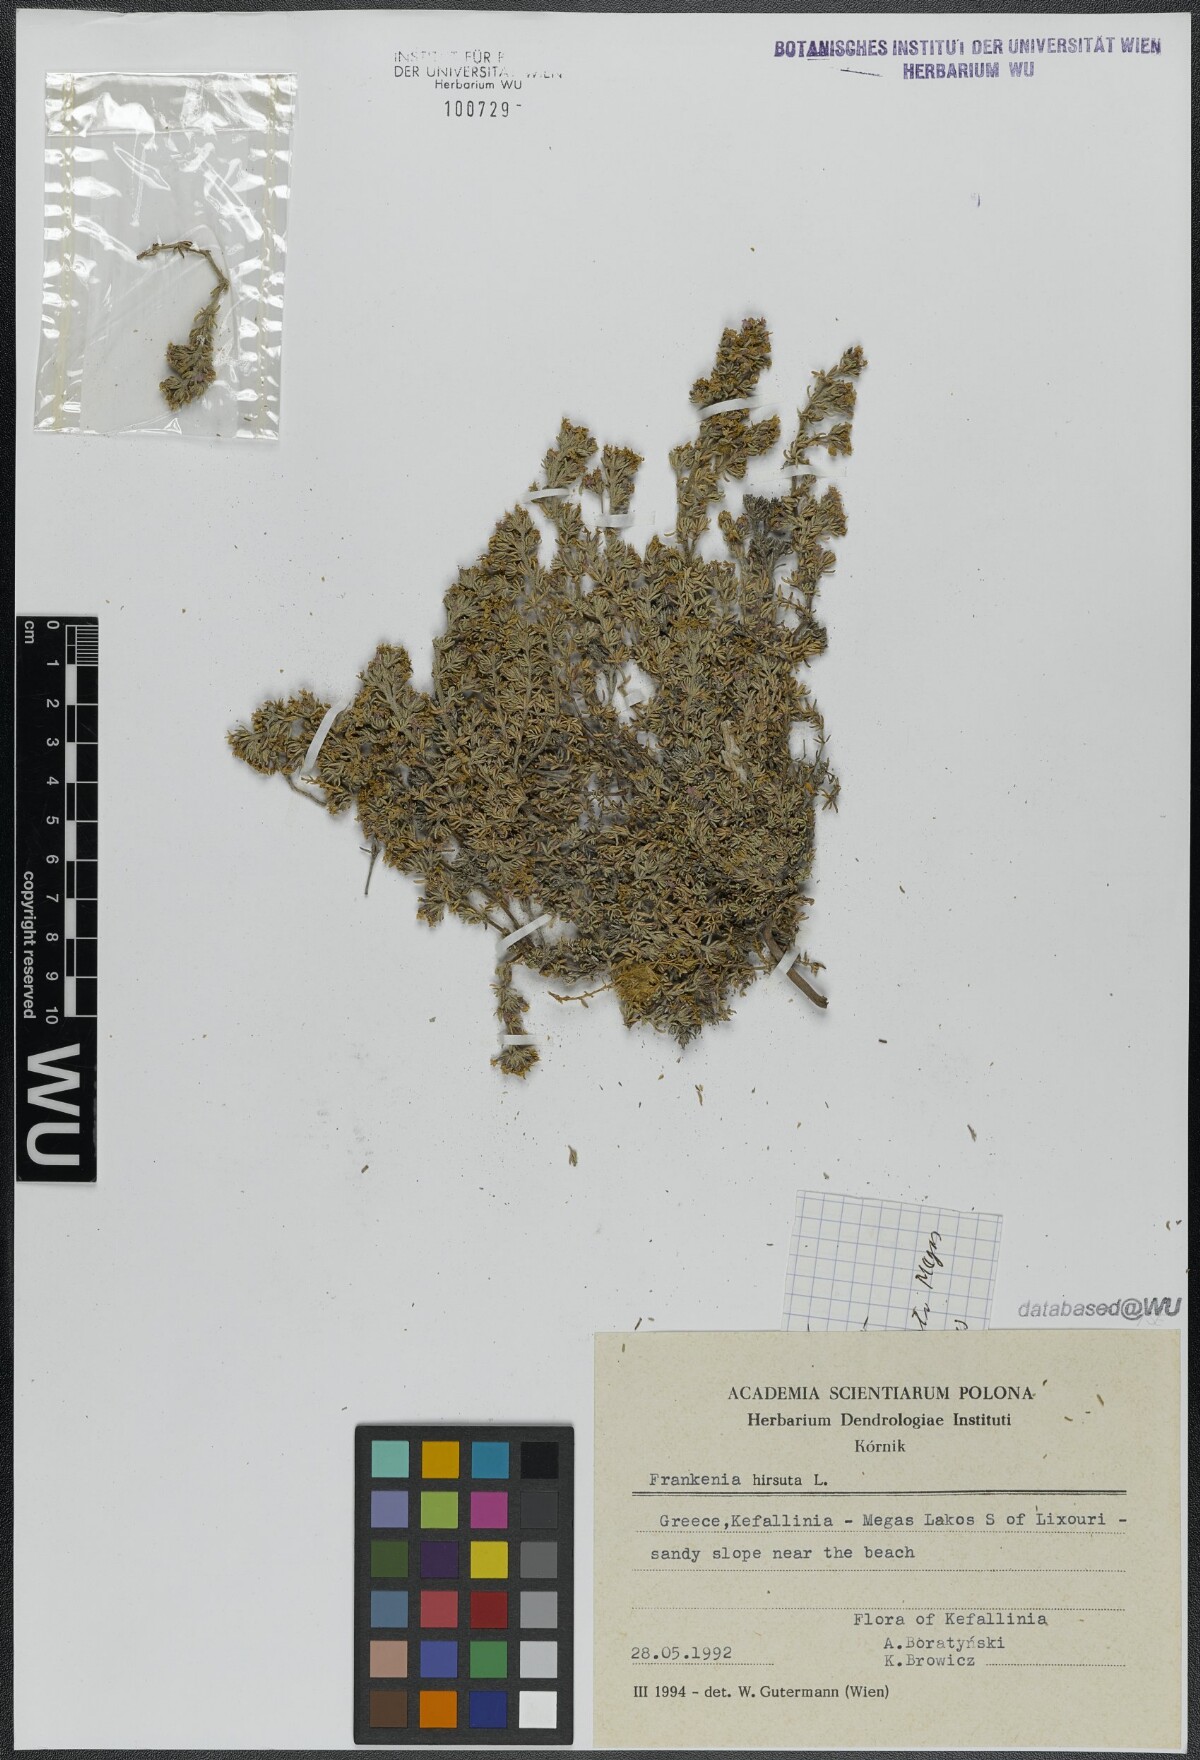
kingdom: Plantae
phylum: Tracheophyta
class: Magnoliopsida
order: Caryophyllales
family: Frankeniaceae
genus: Frankenia
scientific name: Frankenia hirsuta
